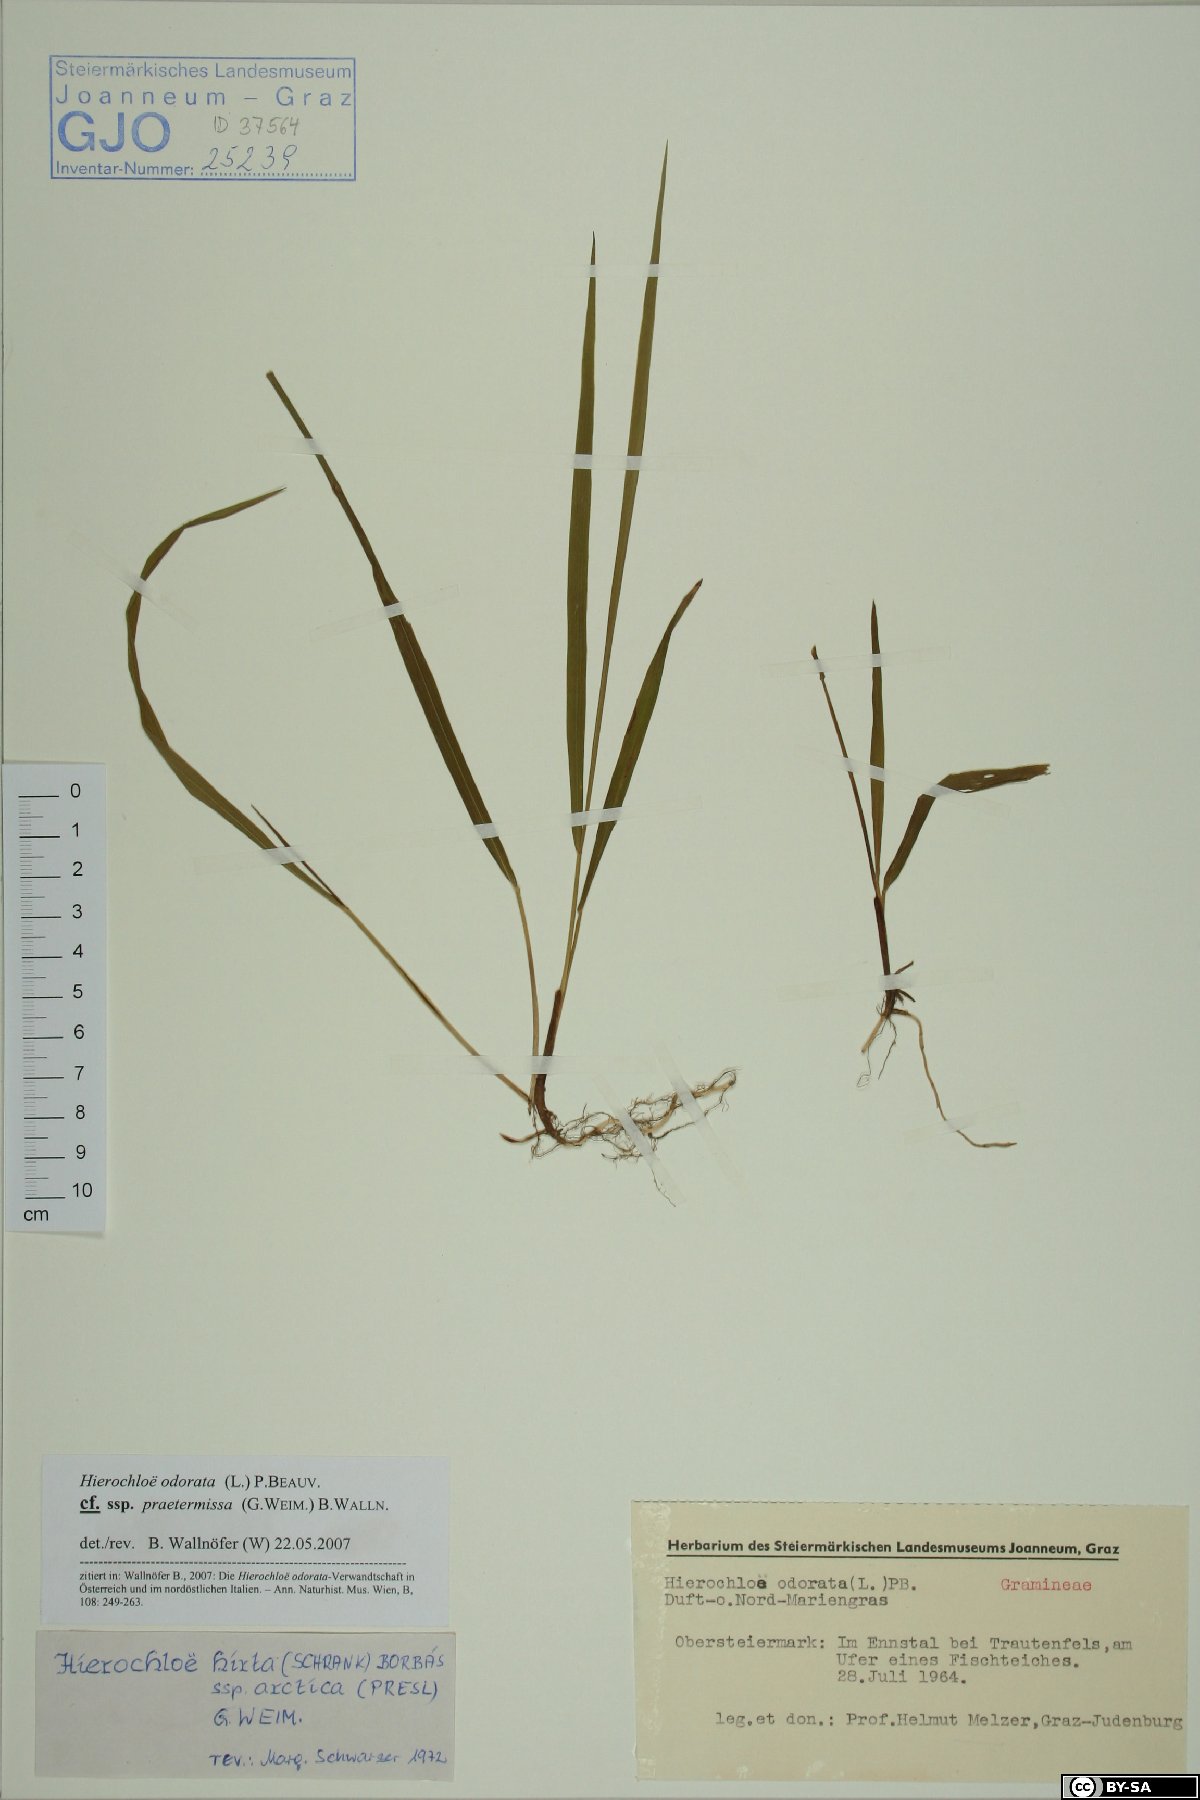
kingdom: Plantae
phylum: Tracheophyta
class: Liliopsida
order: Poales
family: Poaceae
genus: Anthoxanthum
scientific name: Anthoxanthum nitens
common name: Holy grass
